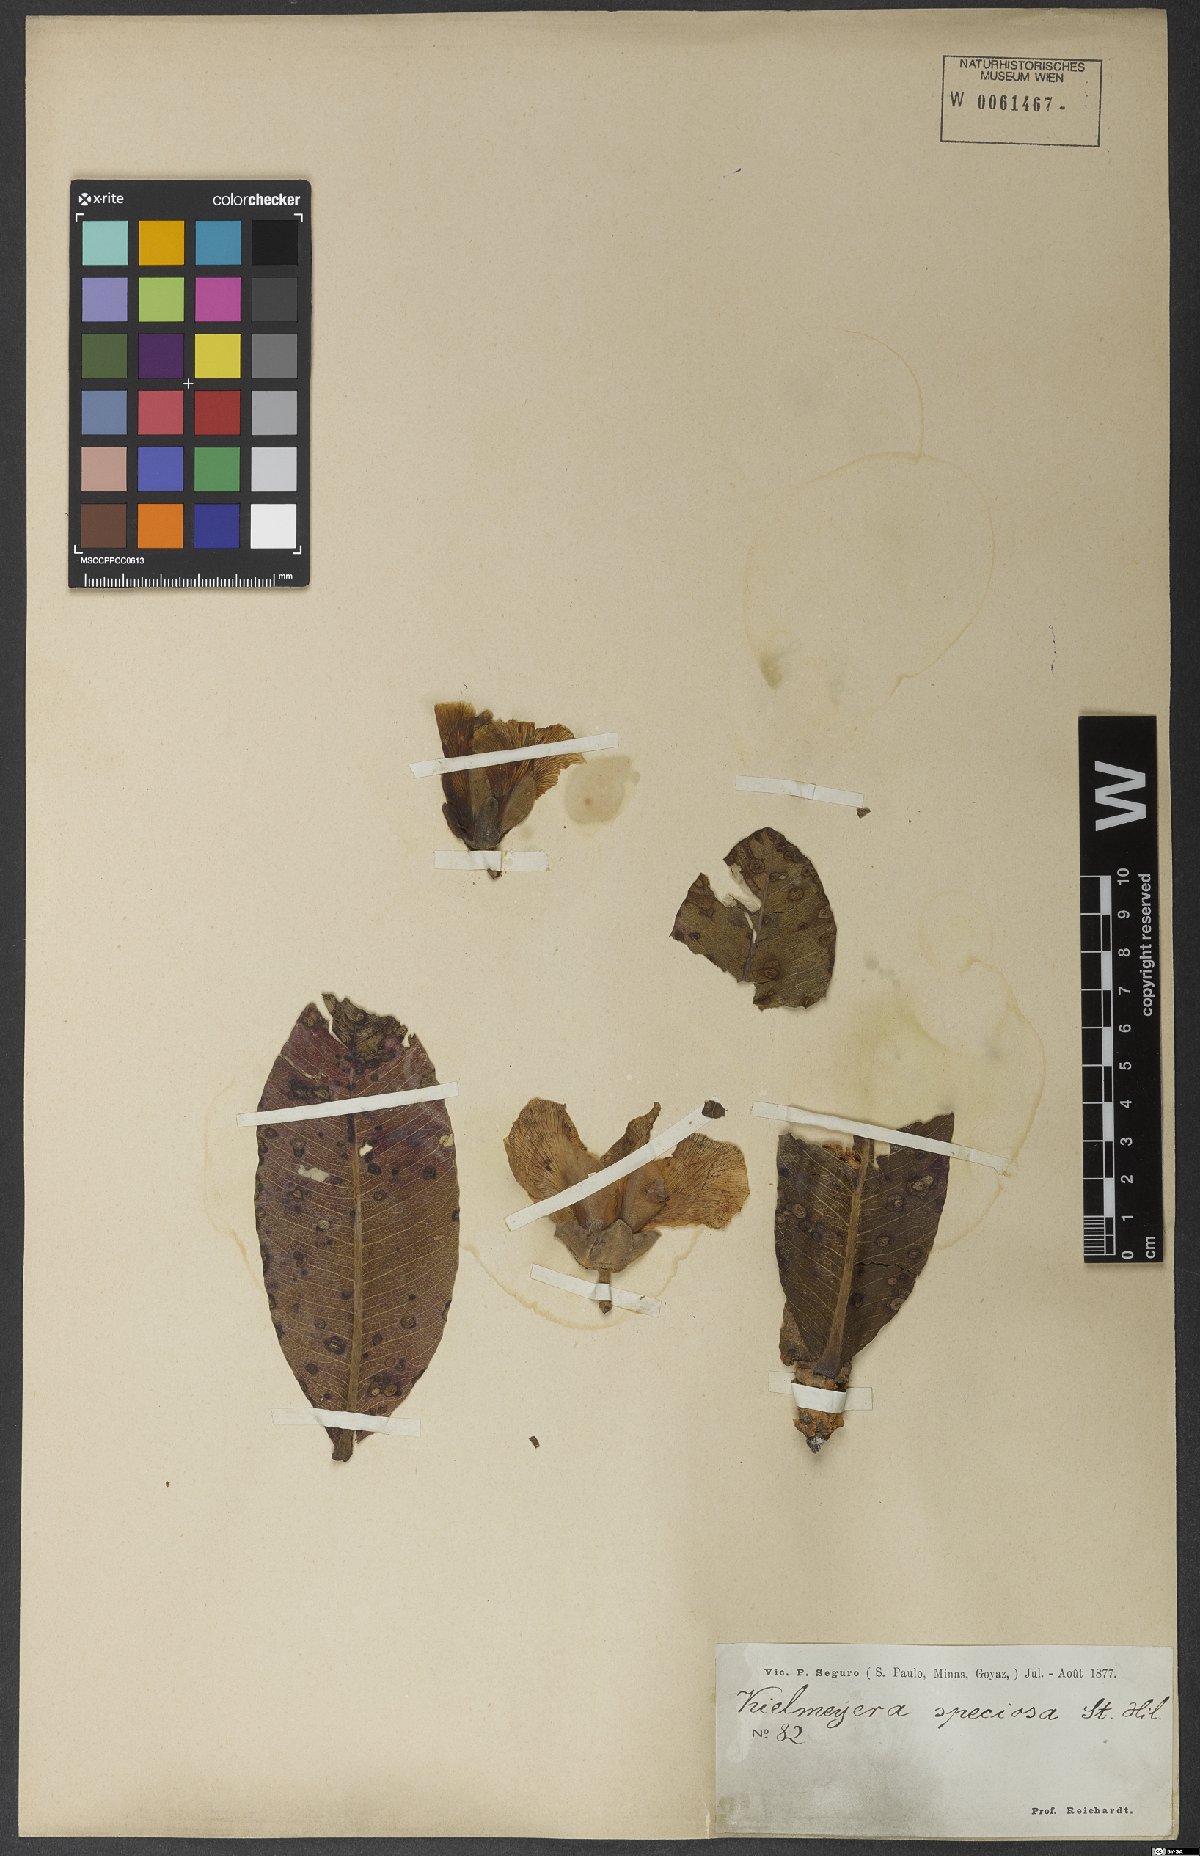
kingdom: Plantae
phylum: Tracheophyta
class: Magnoliopsida
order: Malpighiales
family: Calophyllaceae
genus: Kielmeyera
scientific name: Kielmeyera speciosa
